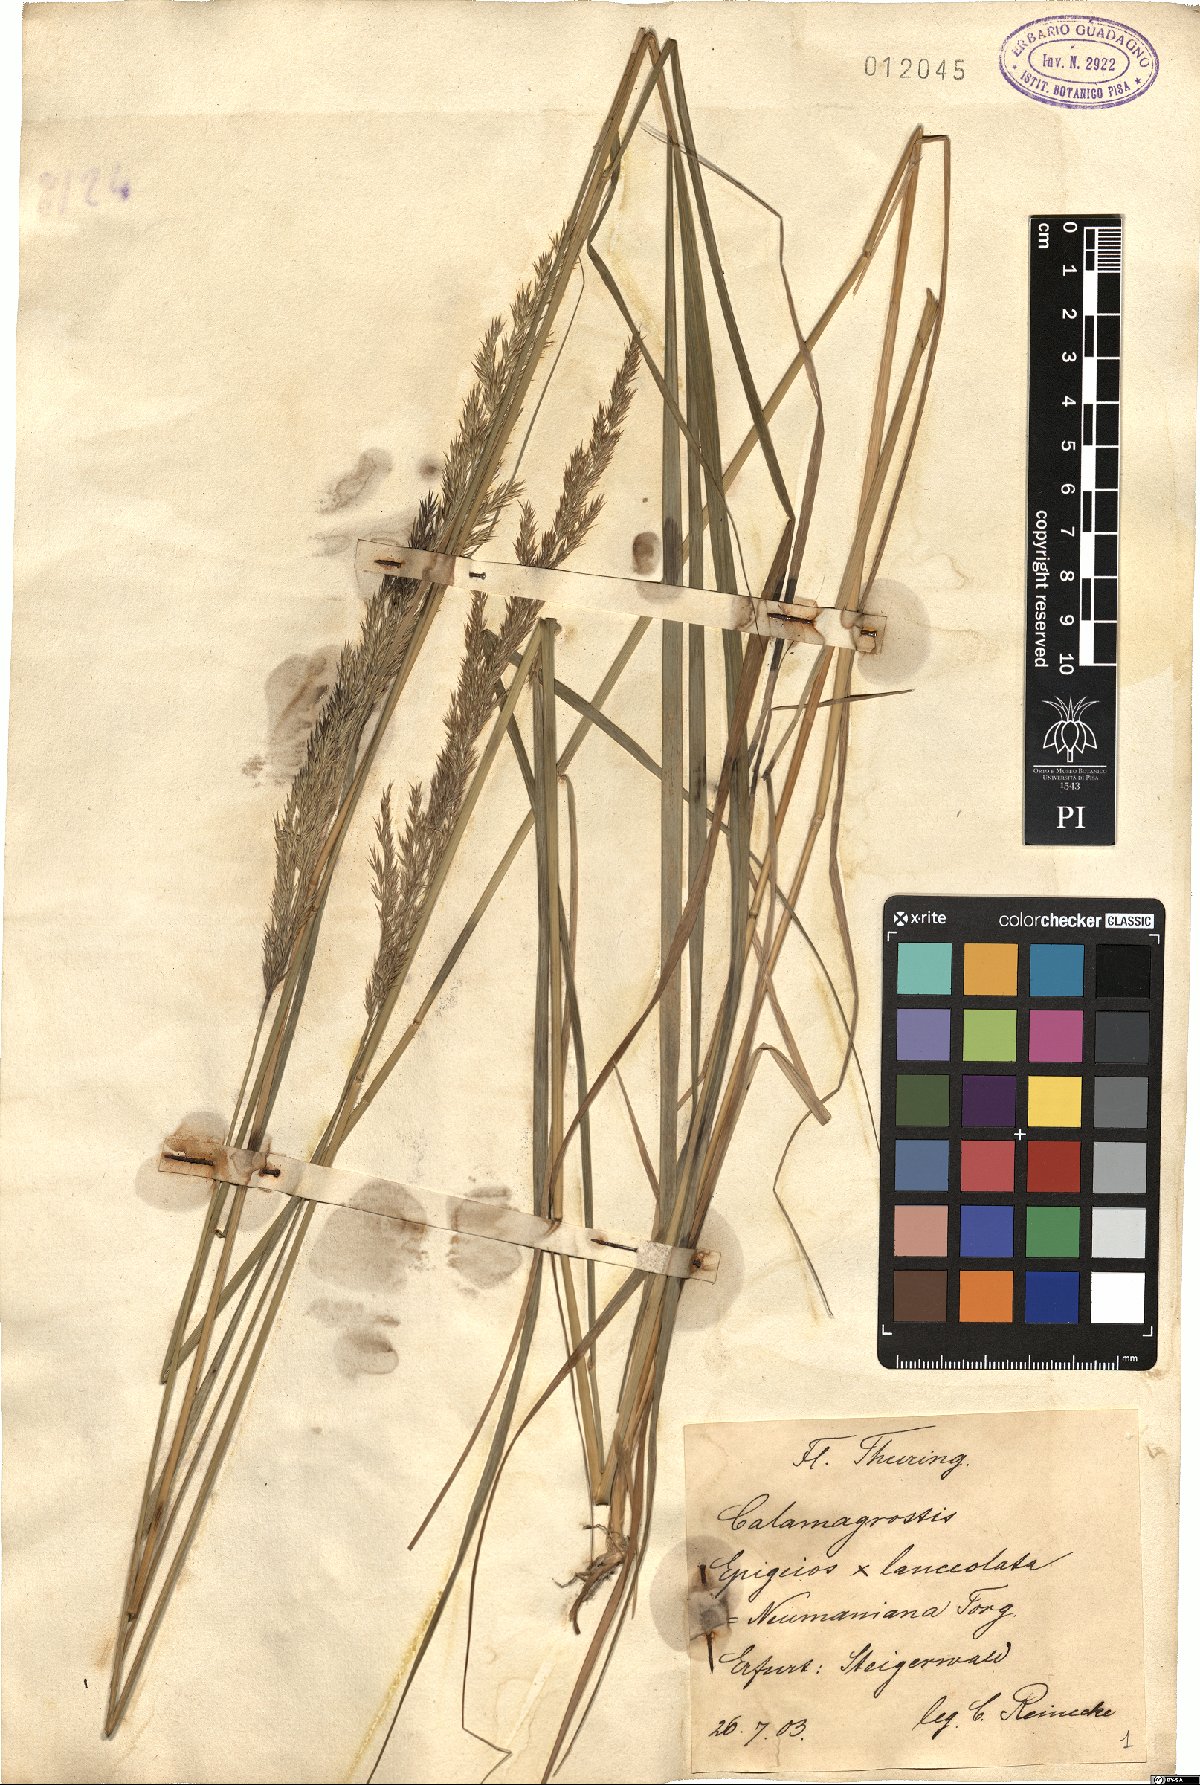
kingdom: Plantae
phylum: Tracheophyta
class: Liliopsida
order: Poales
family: Poaceae
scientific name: Poaceae
